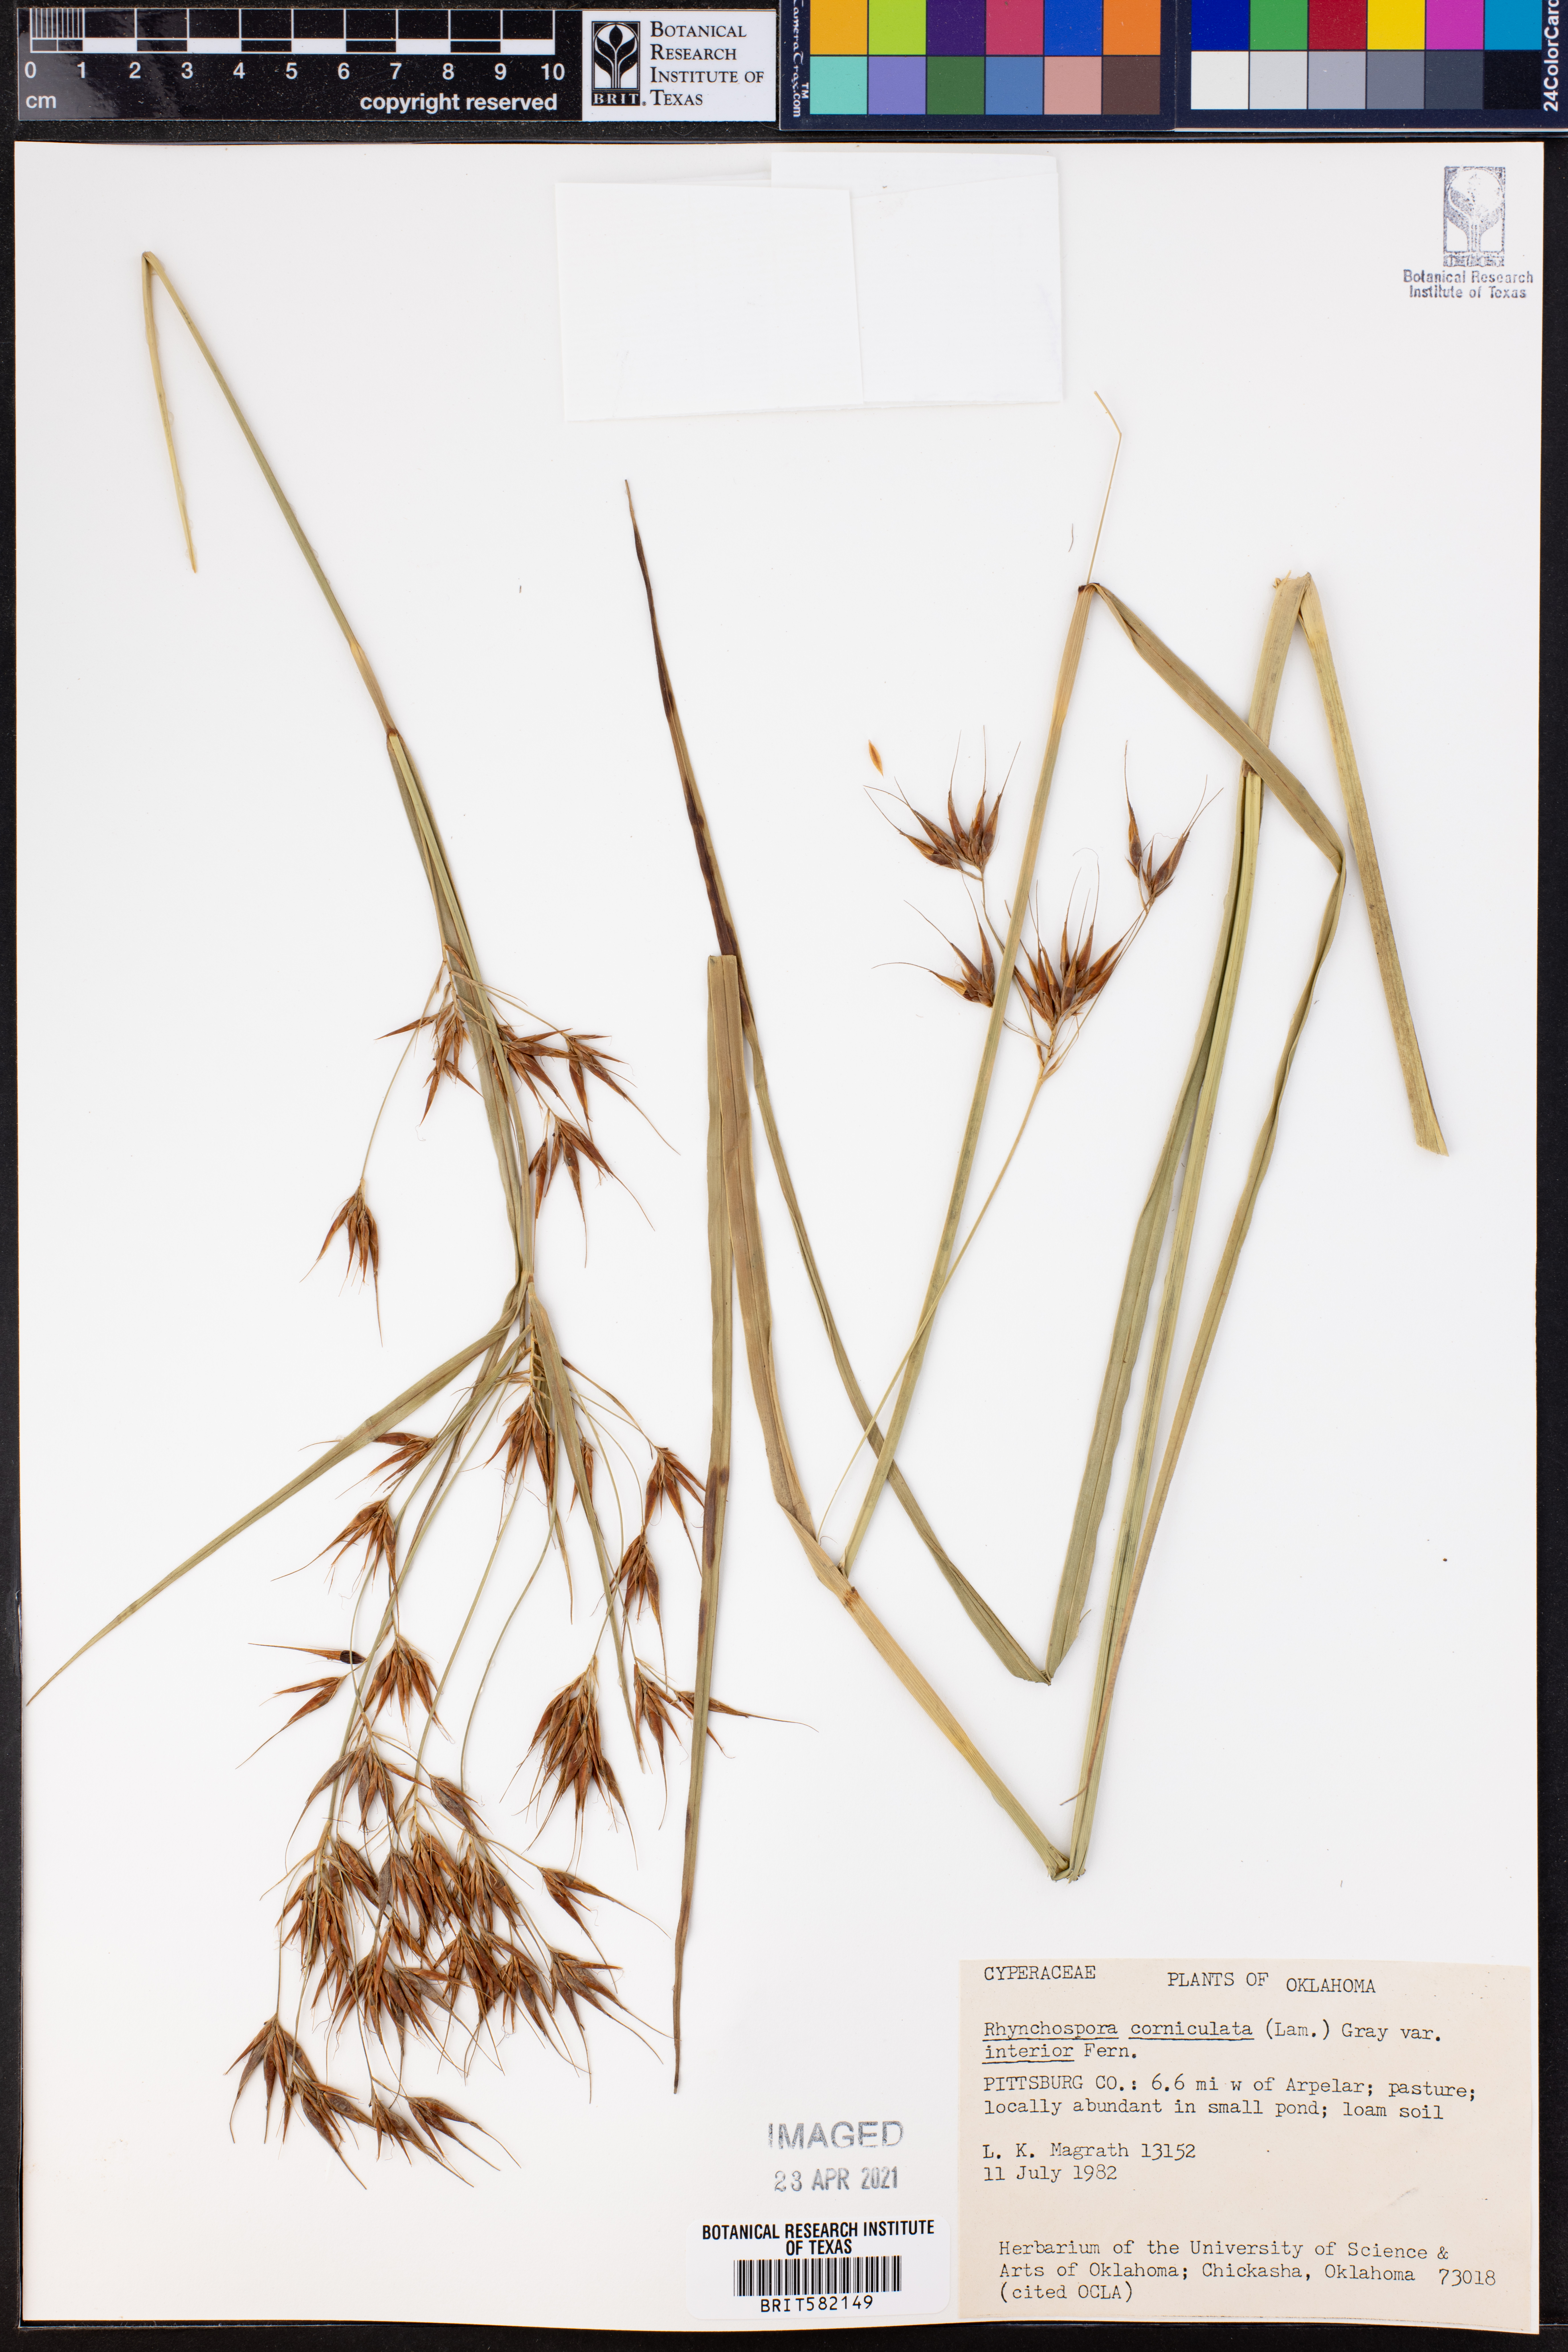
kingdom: Plantae
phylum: Tracheophyta
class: Liliopsida
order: Poales
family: Cyperaceae
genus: Rhynchospora
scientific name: Rhynchospora corniculata
